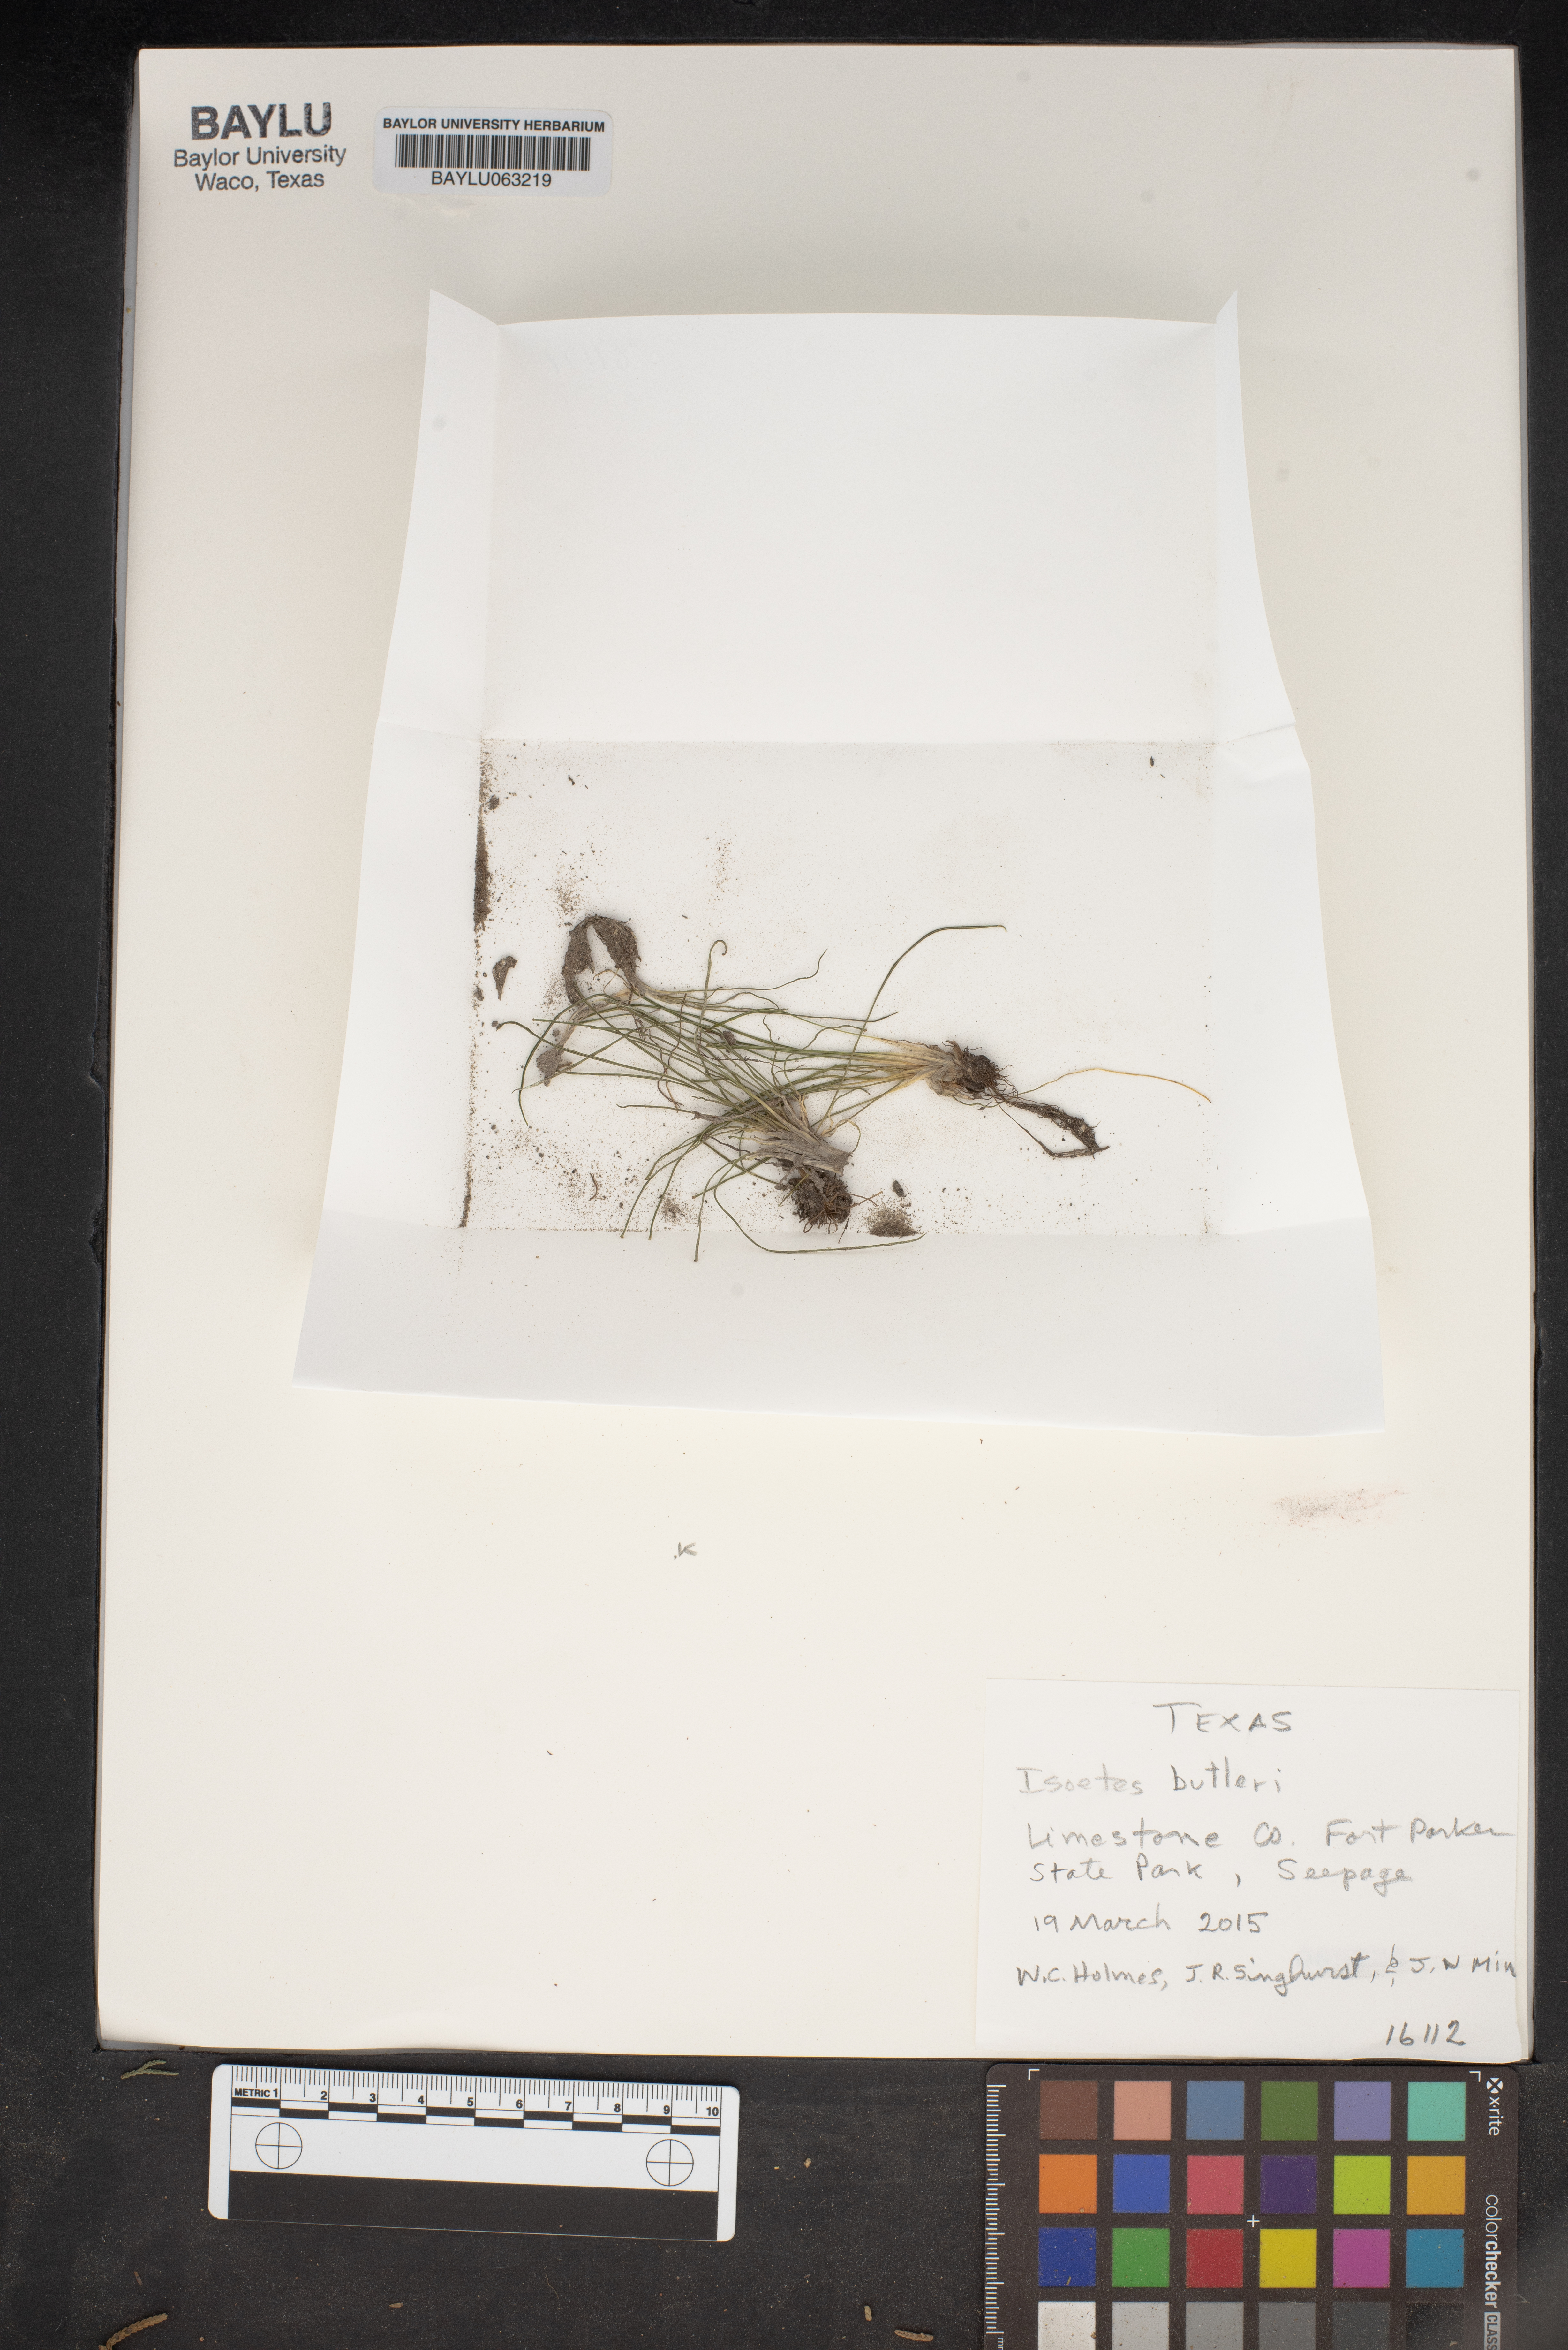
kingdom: Plantae
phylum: Tracheophyta
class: Lycopodiopsida
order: Isoetales
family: Isoetaceae
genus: Isoetes
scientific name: Isoetes butleri
